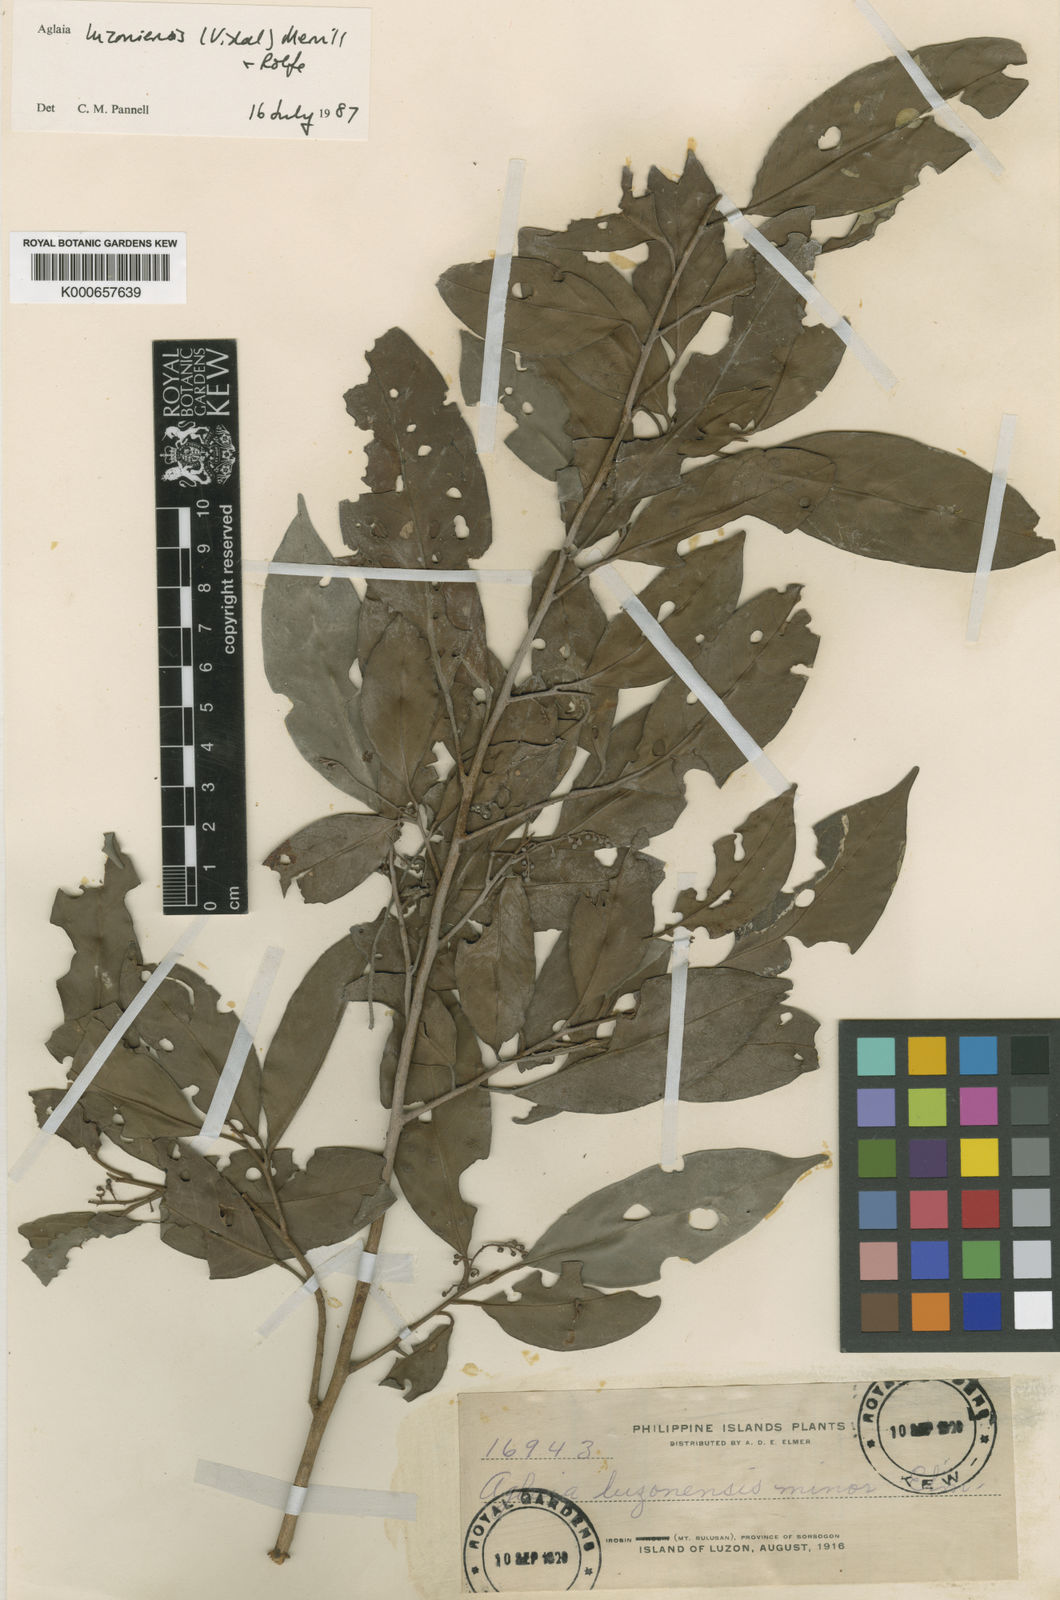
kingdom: Plantae
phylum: Tracheophyta
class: Magnoliopsida
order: Sapindales
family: Meliaceae
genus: Aglaia
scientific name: Aglaia luzoniensis
